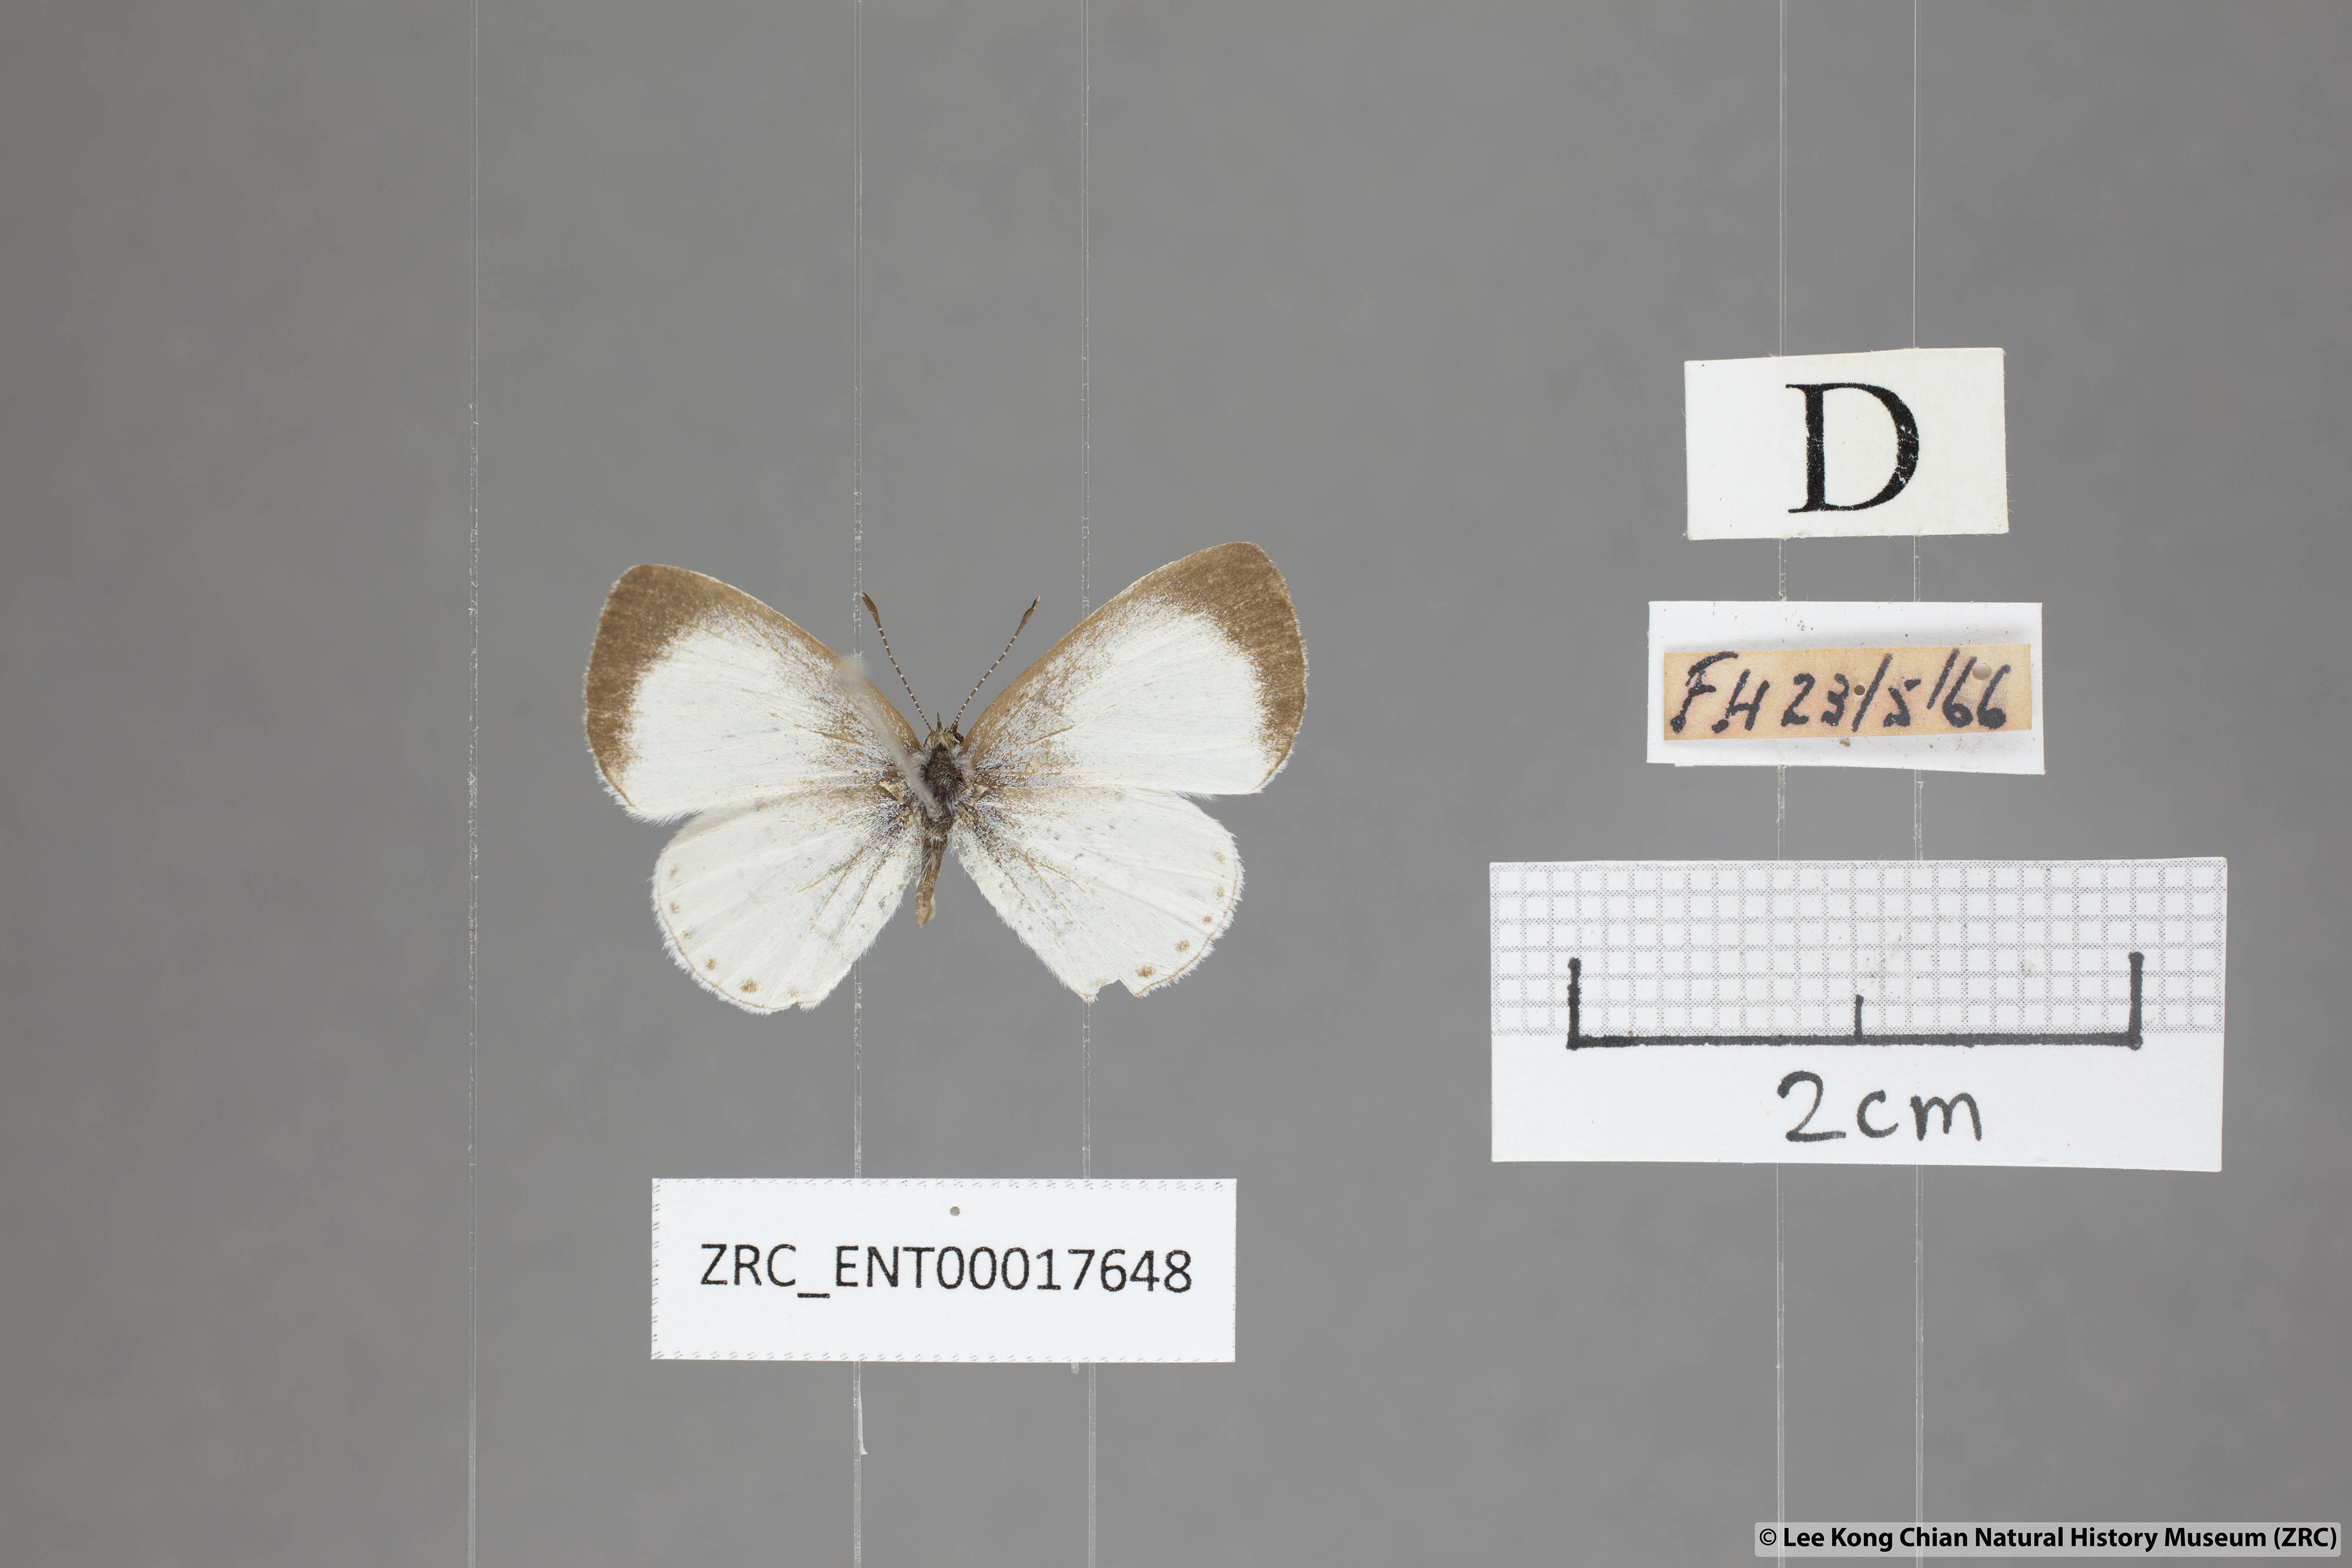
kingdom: Animalia
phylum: Arthropoda
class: Insecta
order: Lepidoptera
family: Lycaenidae
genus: Udara
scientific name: Udara akasa
